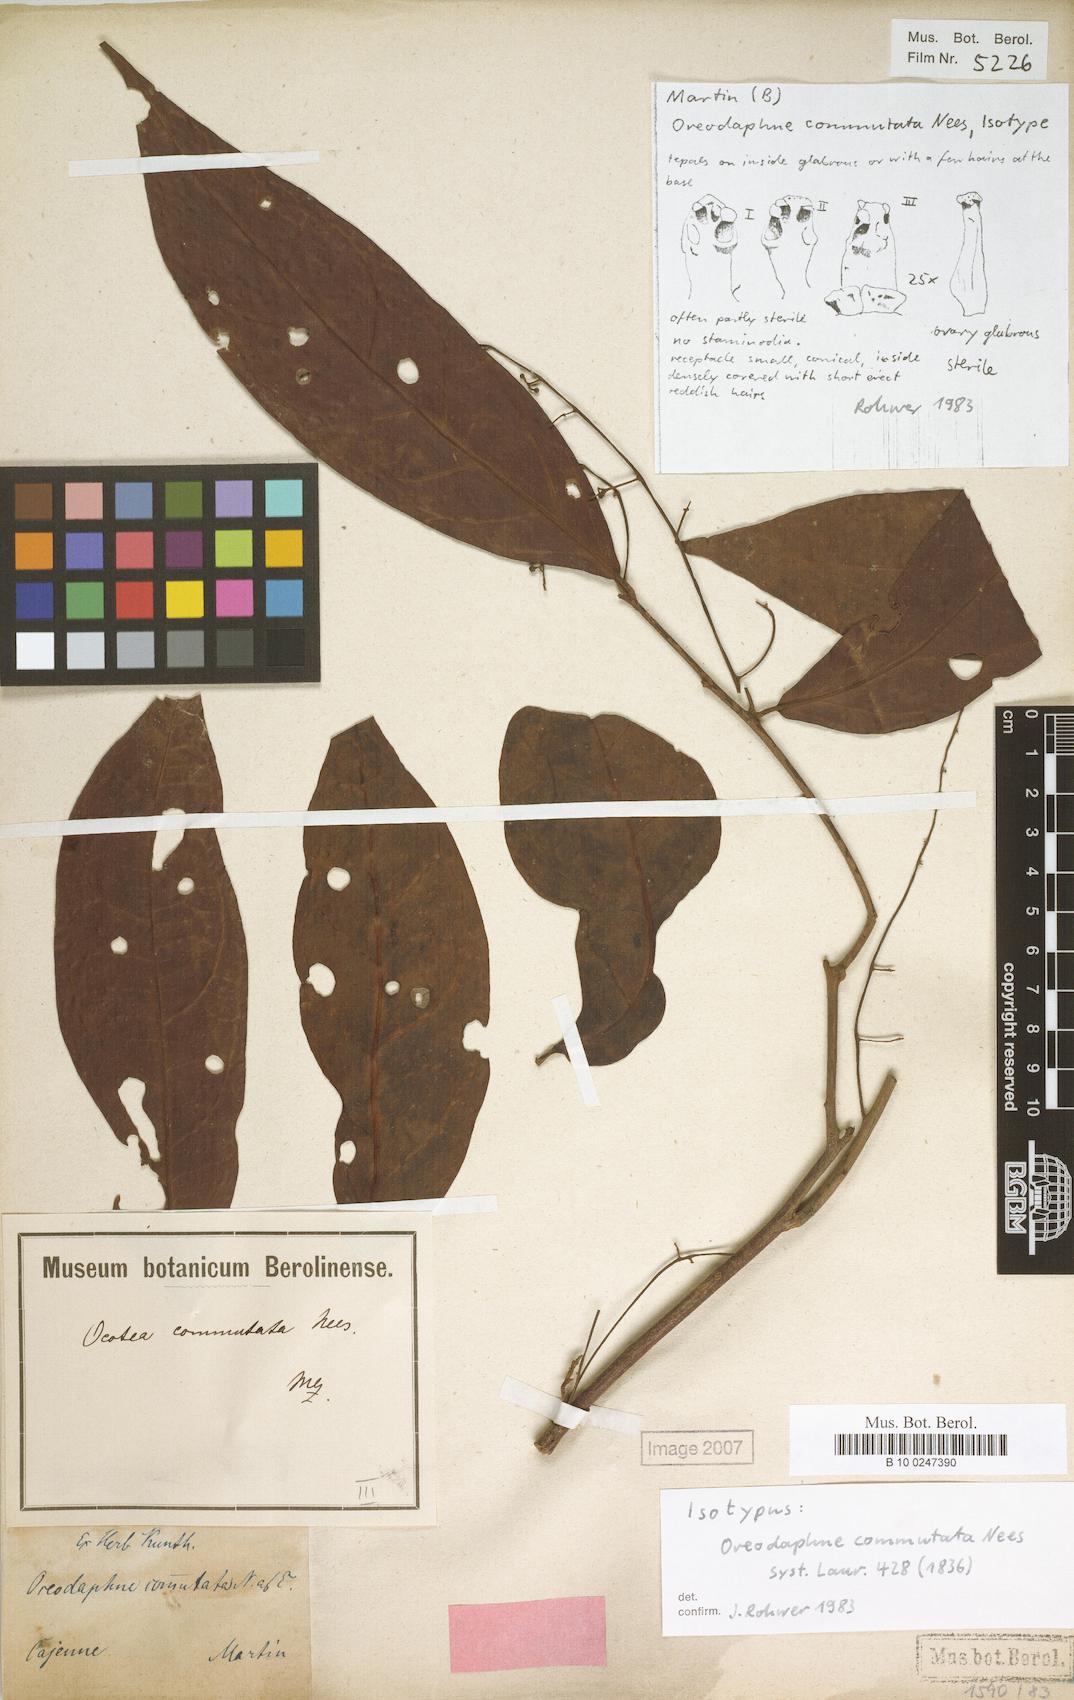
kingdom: Plantae
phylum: Tracheophyta
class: Magnoliopsida
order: Laurales
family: Lauraceae
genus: Ocotea
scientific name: Ocotea commutata
